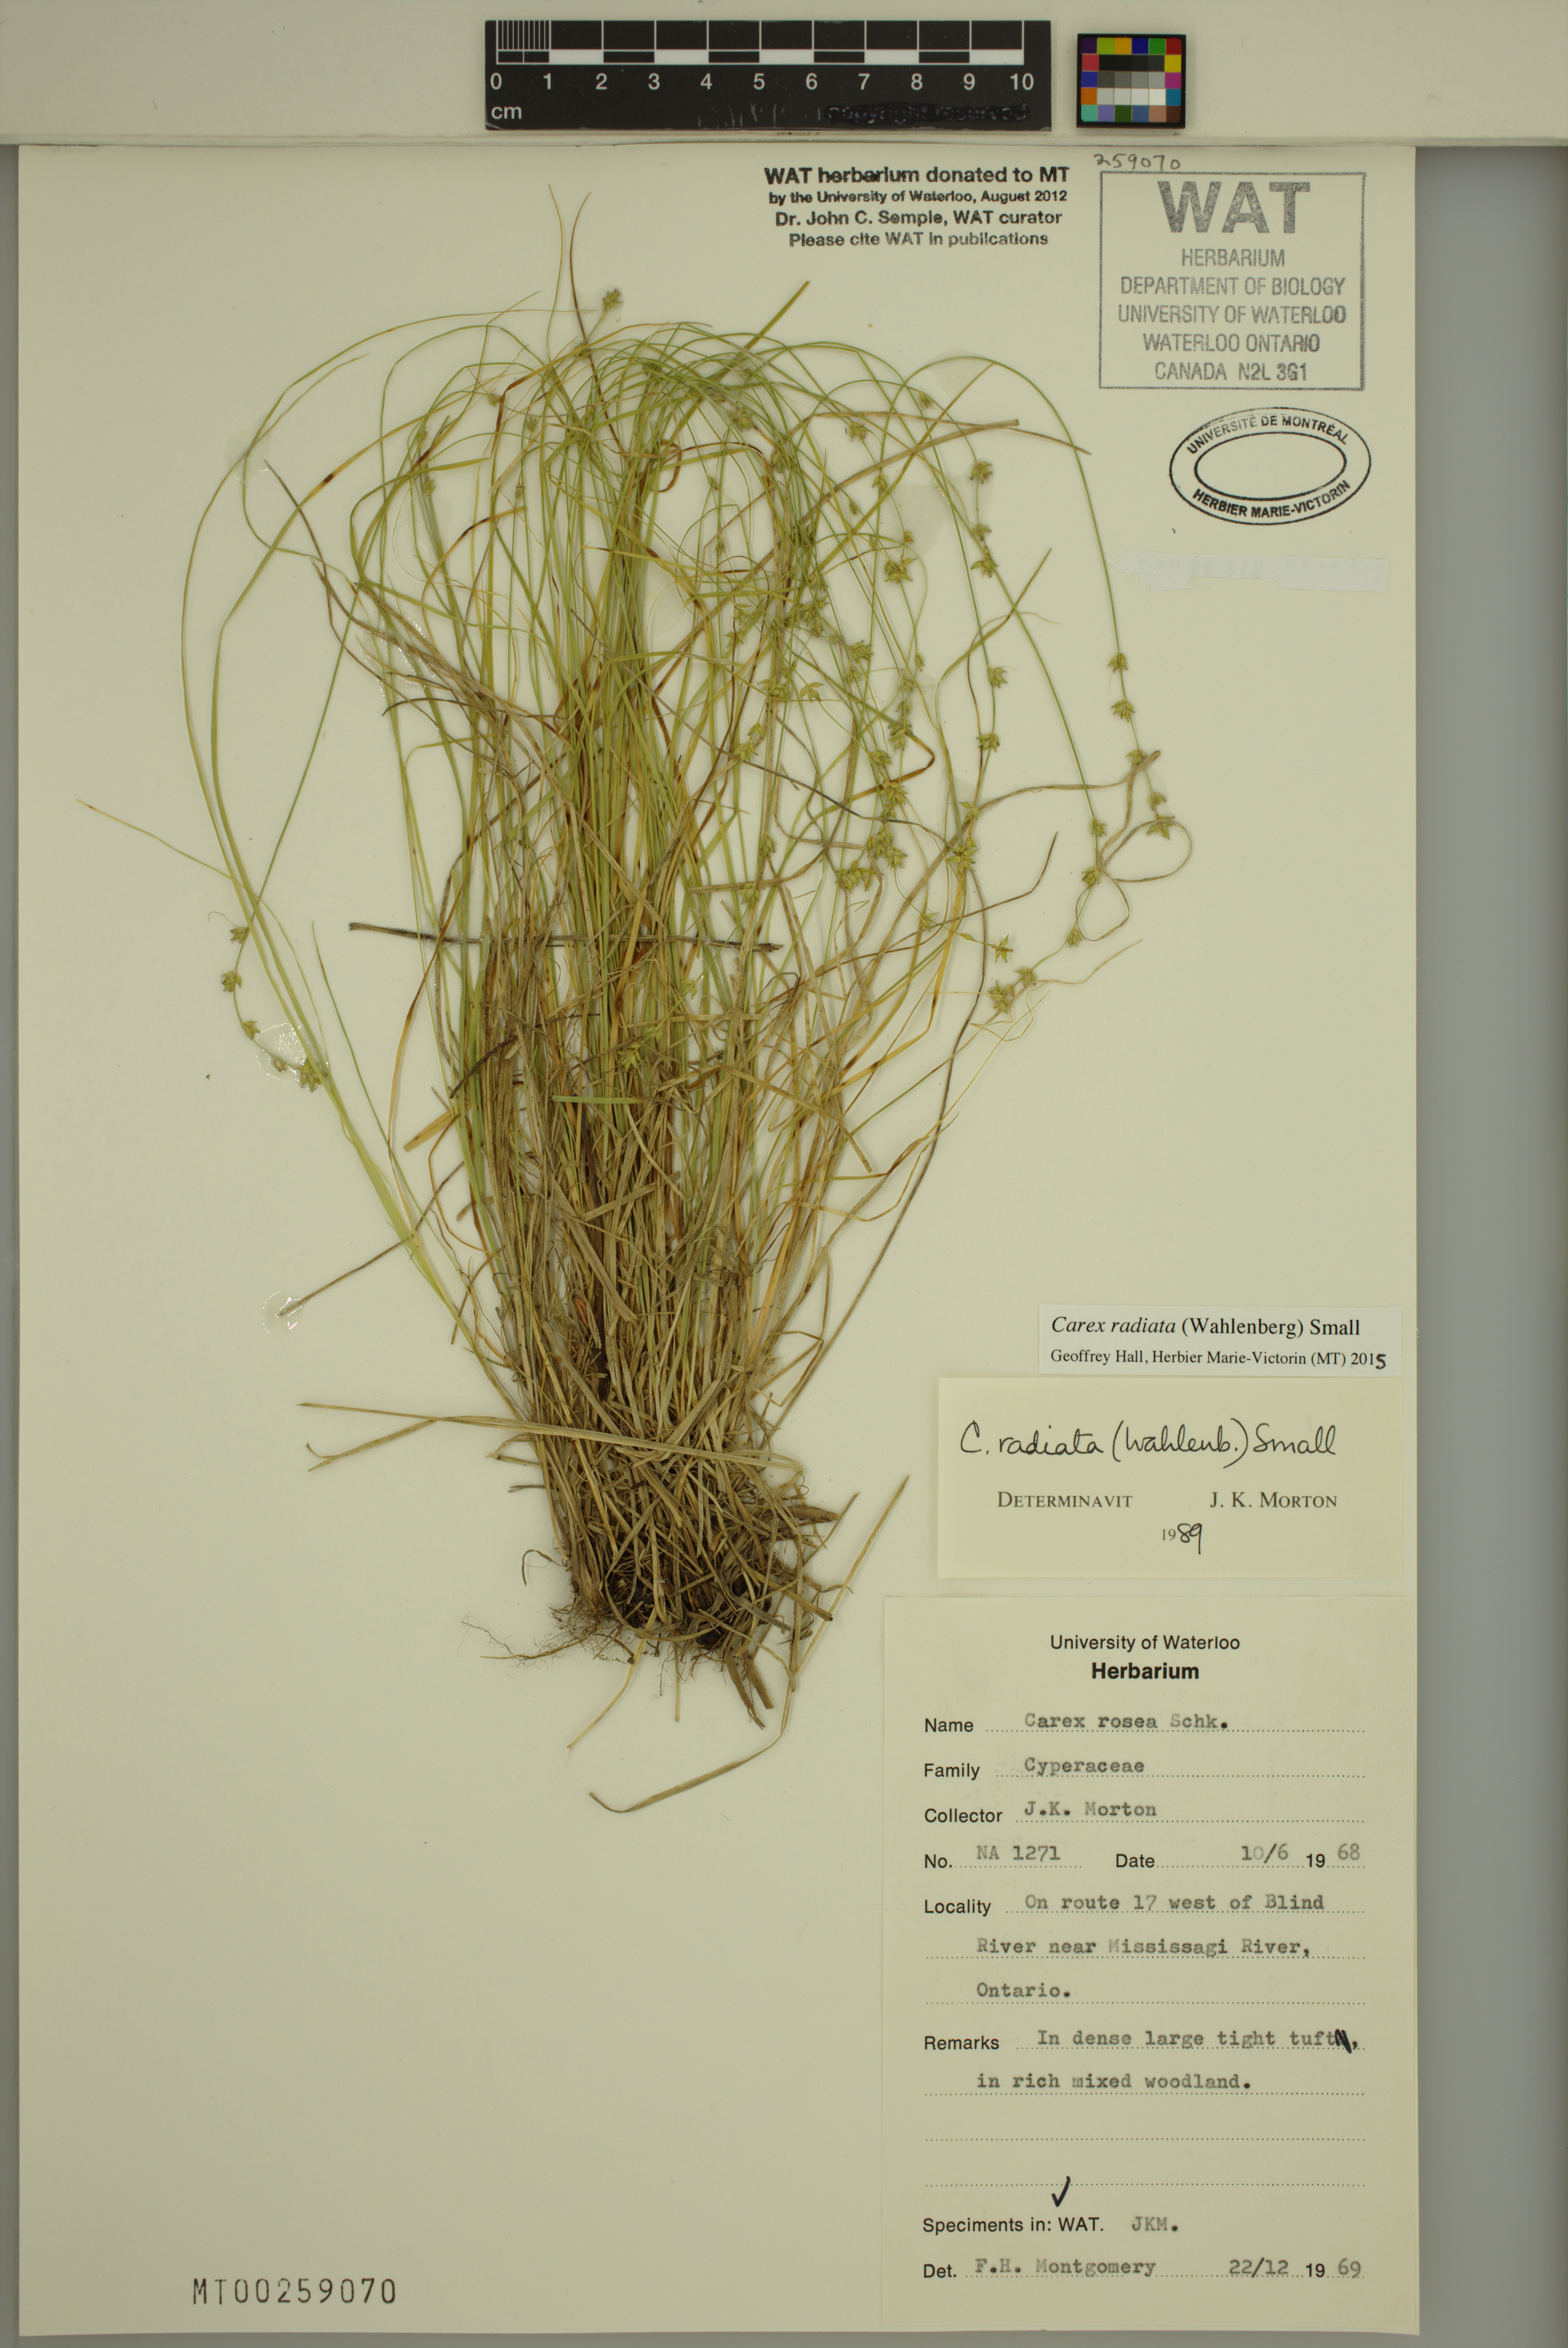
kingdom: Plantae
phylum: Tracheophyta
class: Liliopsida
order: Poales
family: Cyperaceae
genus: Carex
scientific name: Carex radiata
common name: Eastern star sedge
